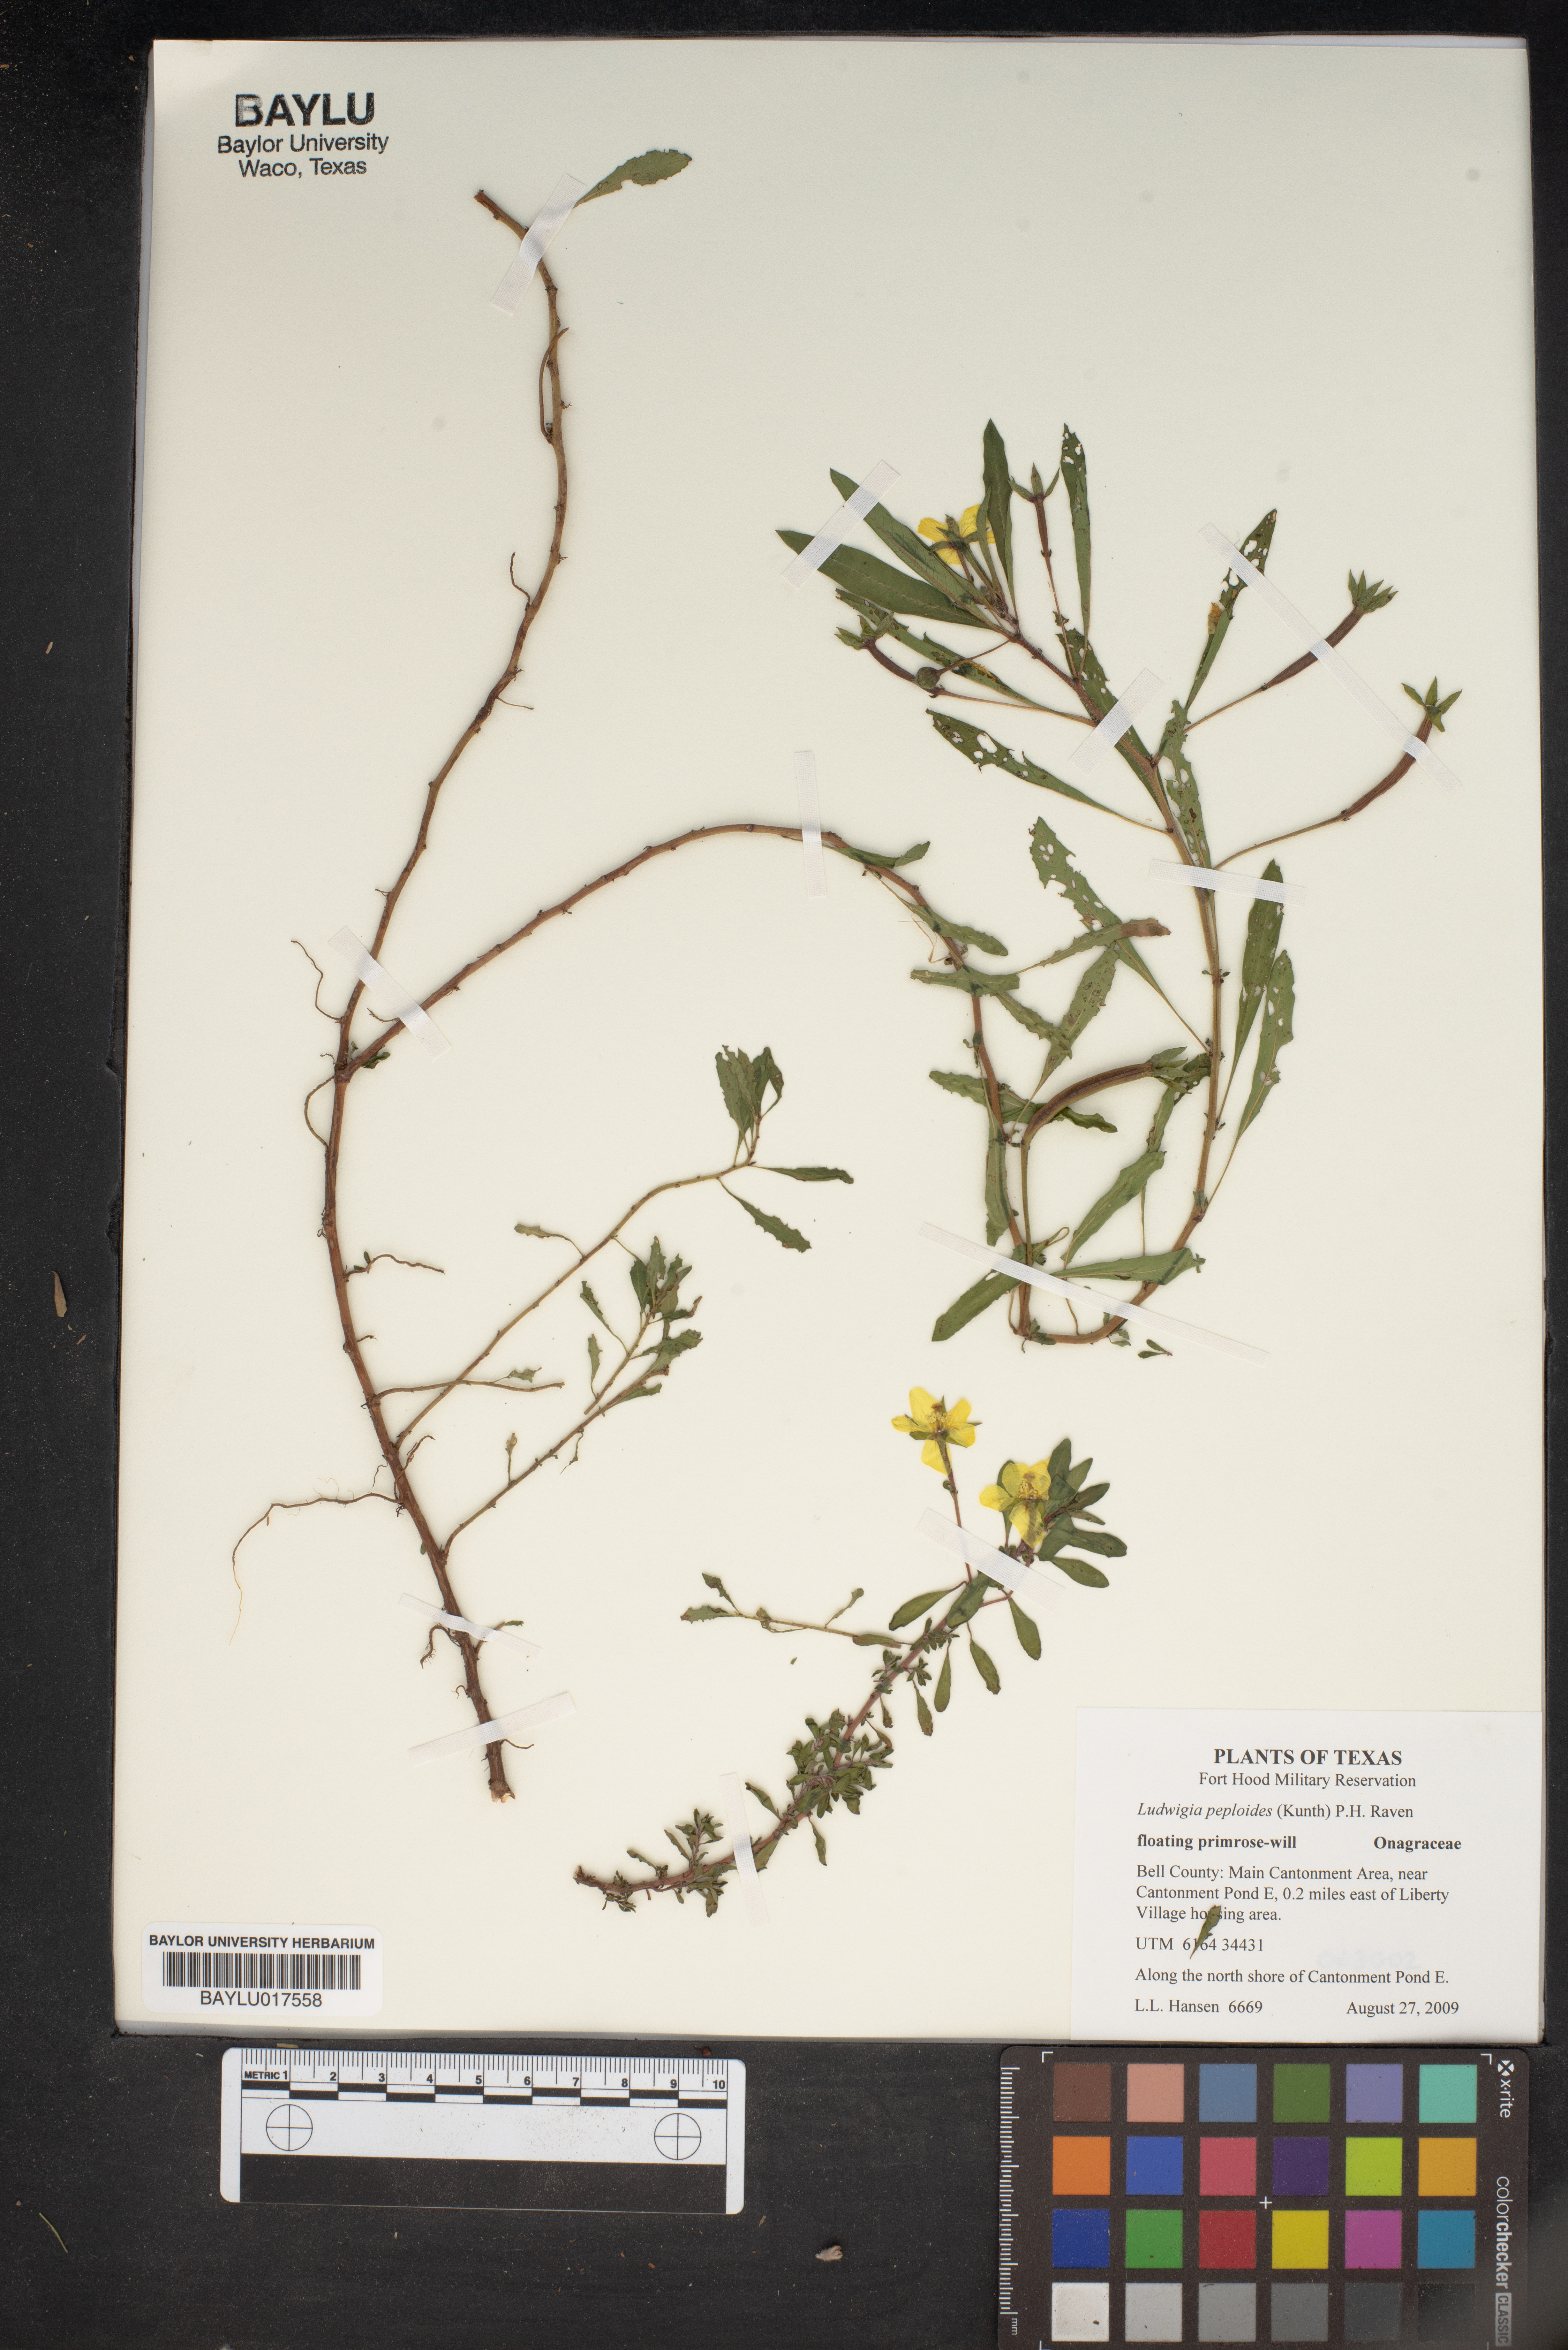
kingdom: Plantae
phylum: Tracheophyta
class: Magnoliopsida
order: Myrtales
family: Onagraceae
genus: Ludwigia
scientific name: Ludwigia peploides
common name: Floating primrose-willow
